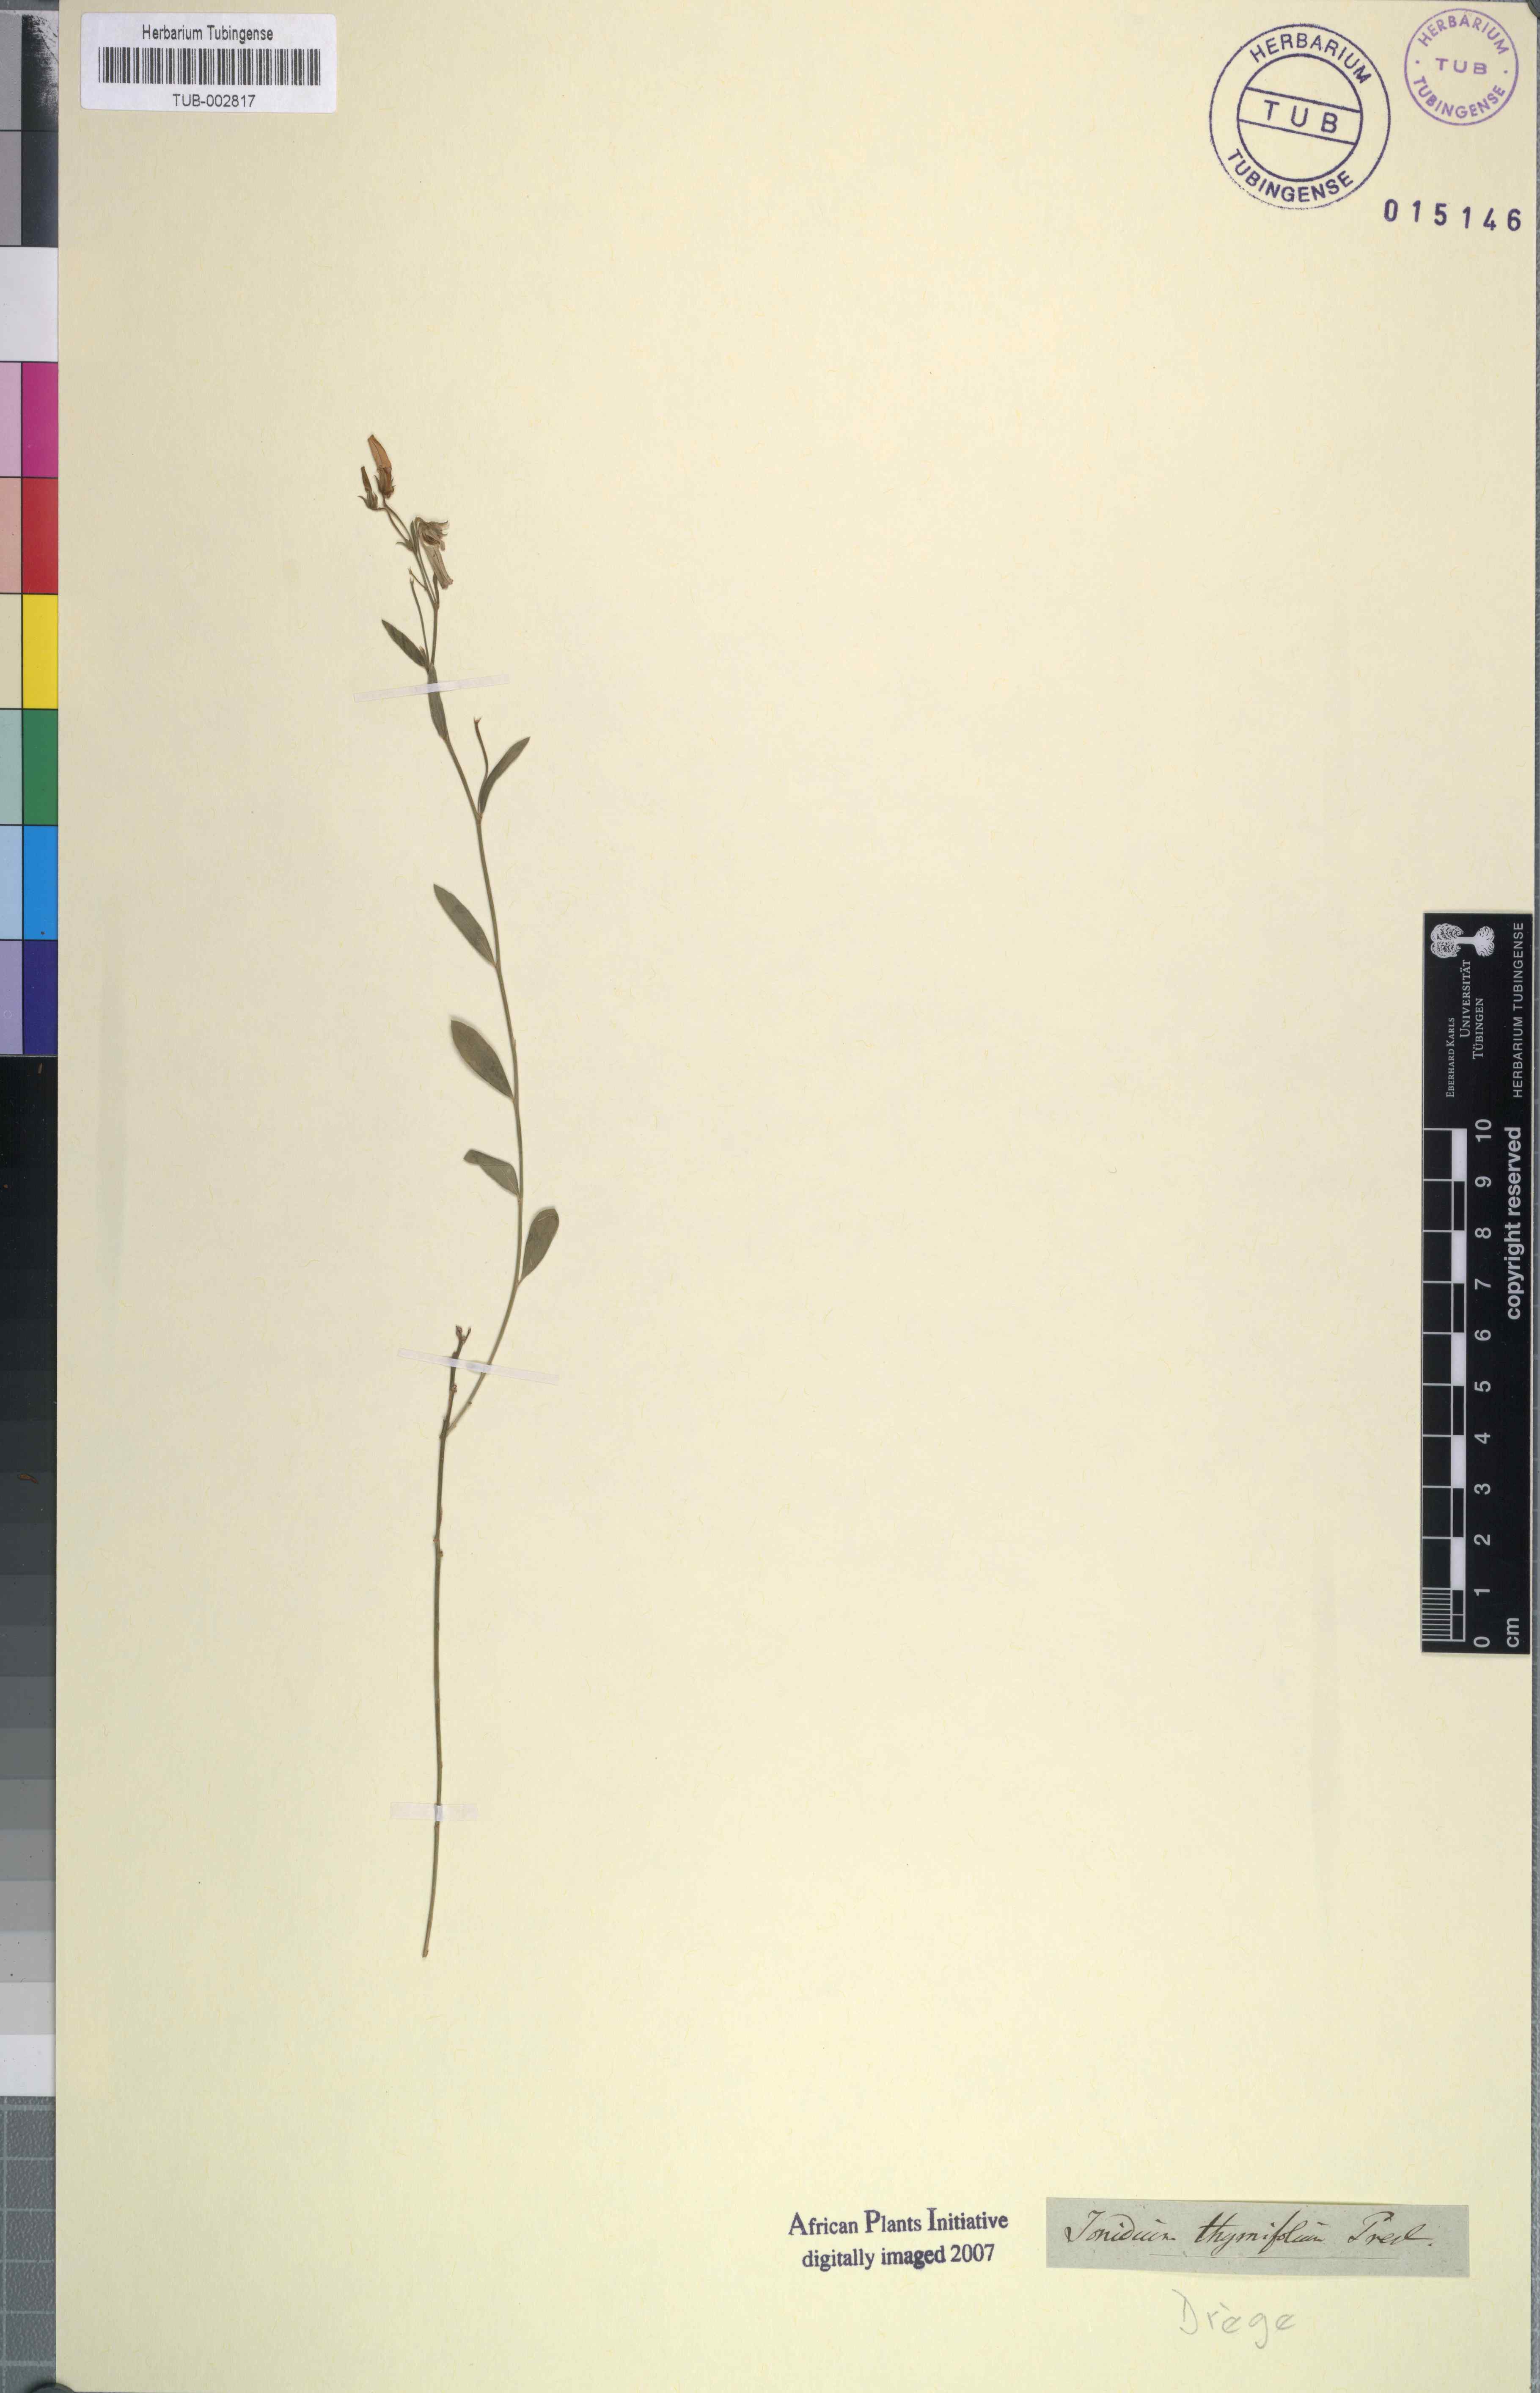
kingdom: Plantae
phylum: Tracheophyta
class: Magnoliopsida
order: Malpighiales
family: Violaceae
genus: Pigea
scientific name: Pigea enneasperma
